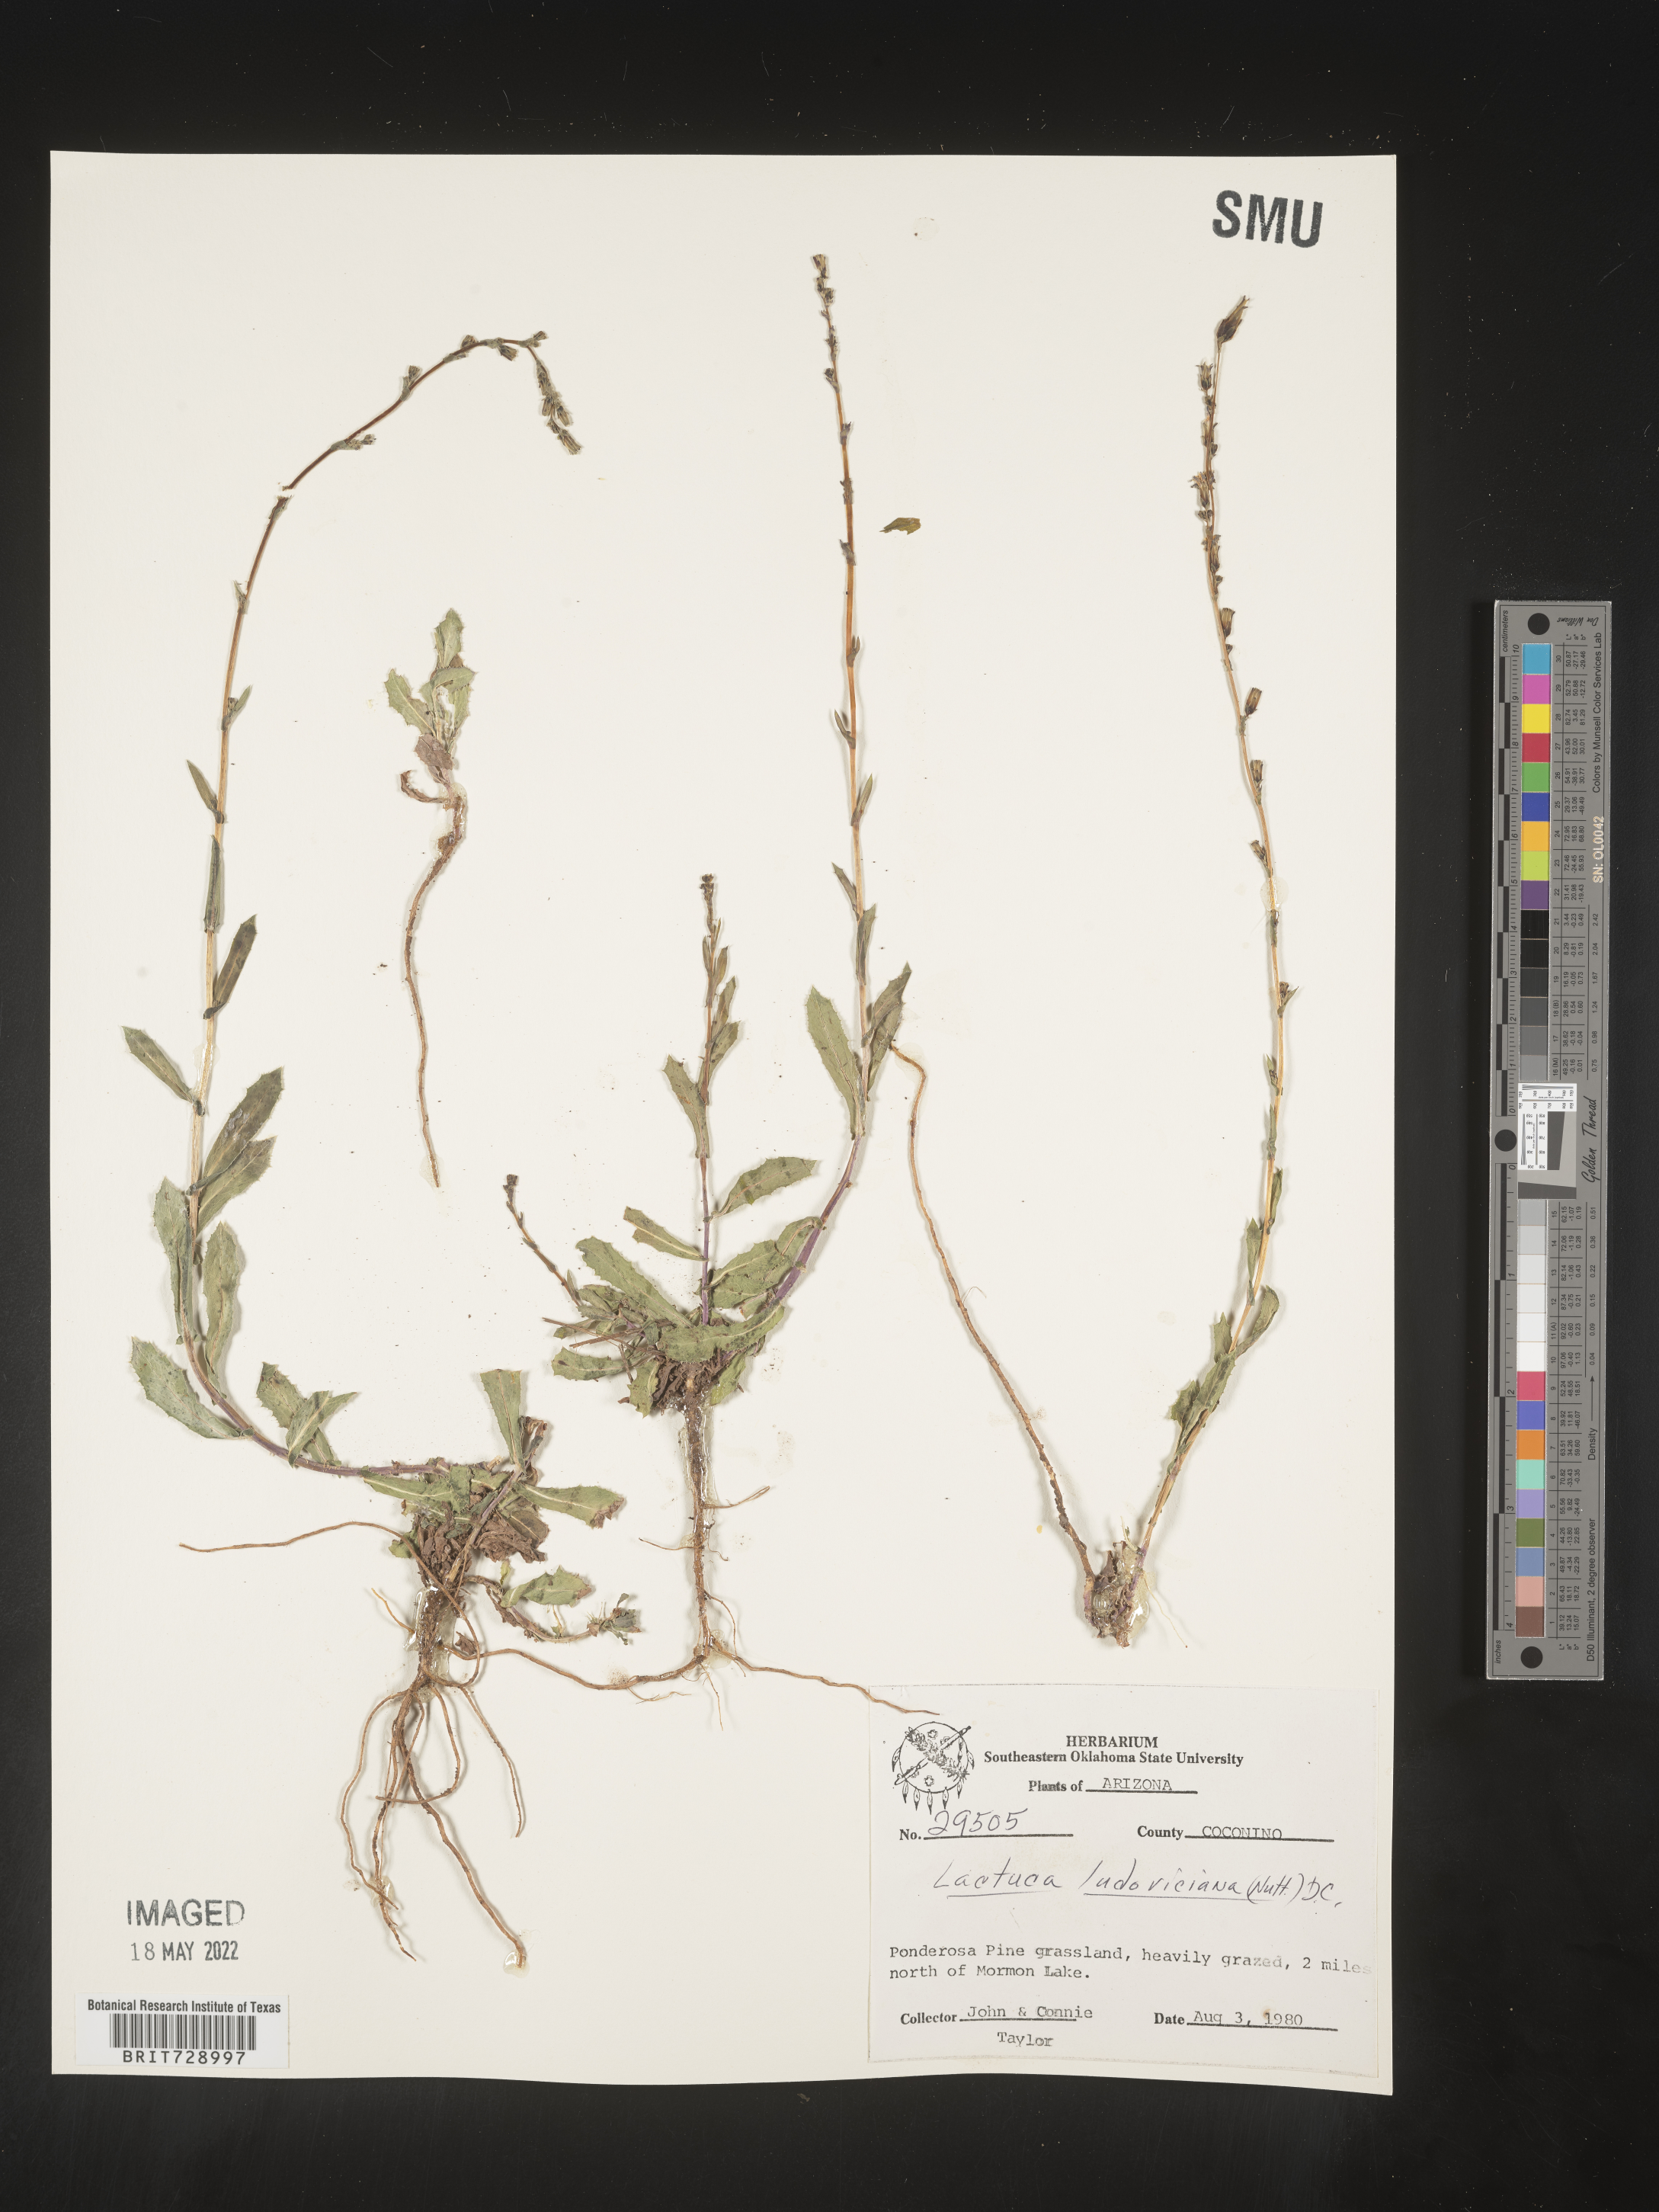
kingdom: Plantae
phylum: Tracheophyta
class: Magnoliopsida
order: Asterales
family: Asteraceae
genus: Lactuca
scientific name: Lactuca
